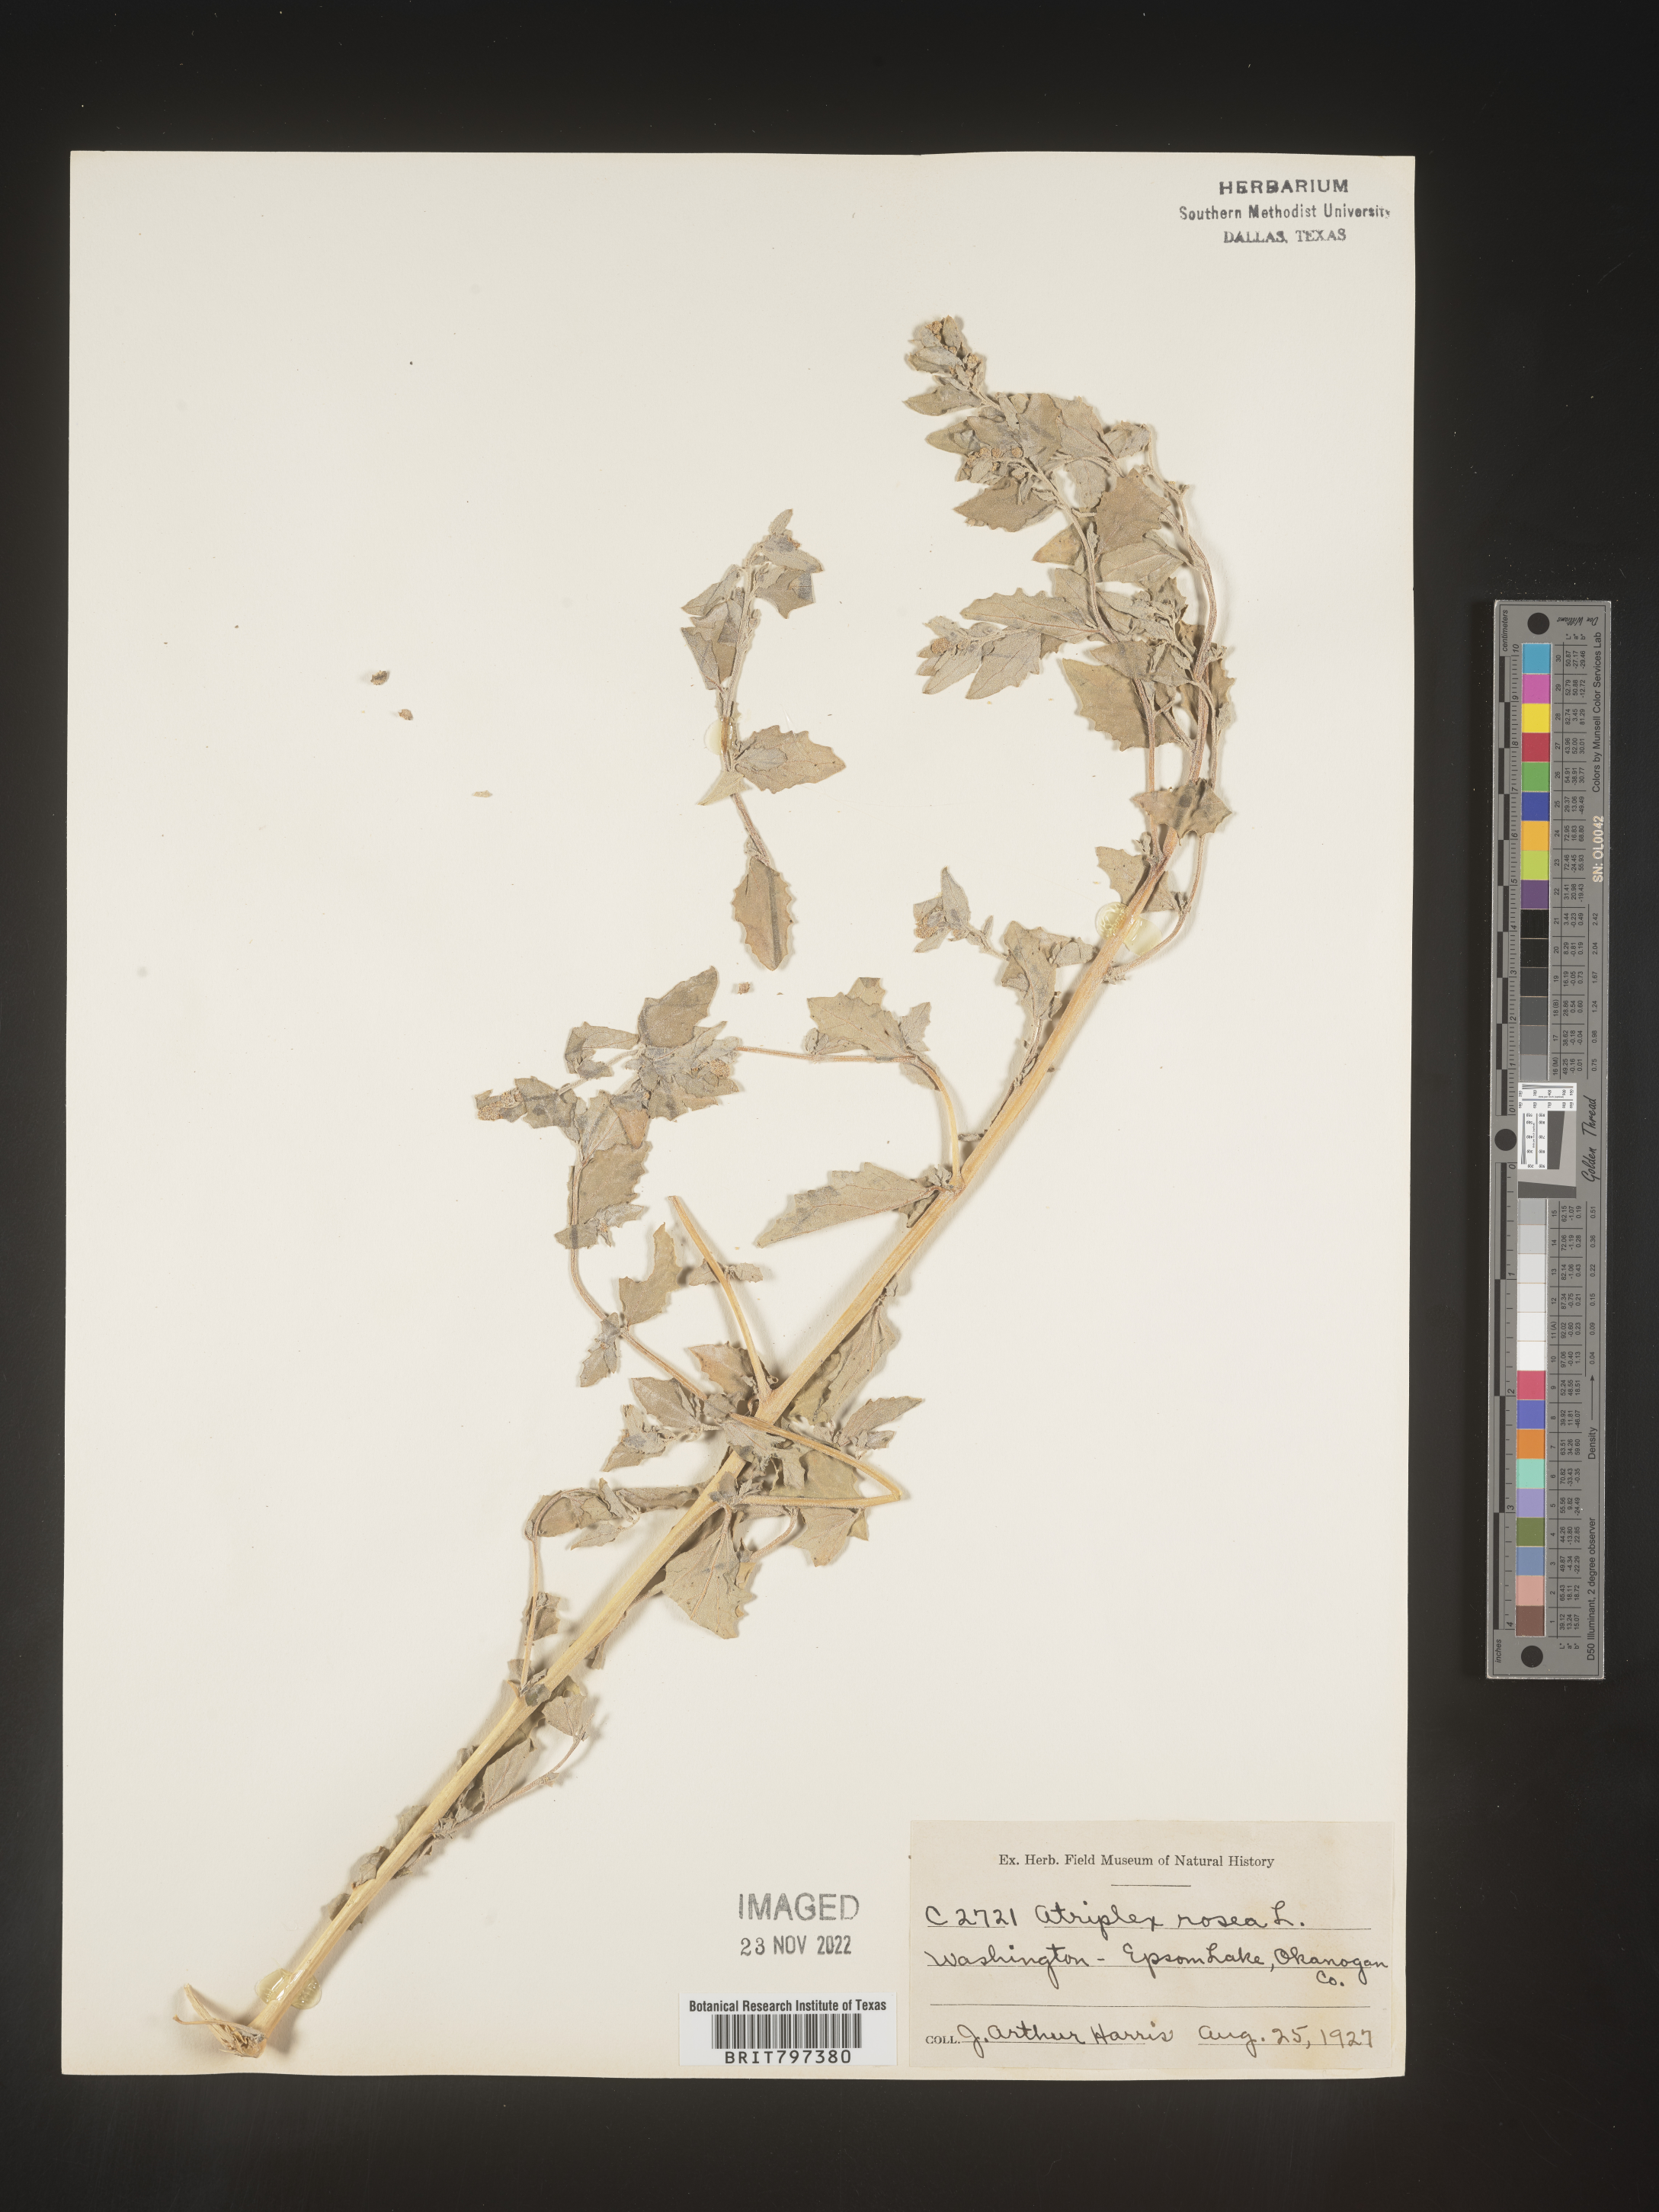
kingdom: Plantae
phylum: Tracheophyta
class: Magnoliopsida
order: Caryophyllales
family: Amaranthaceae
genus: Atriplex
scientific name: Atriplex rosea
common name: Tumbling saltweed
